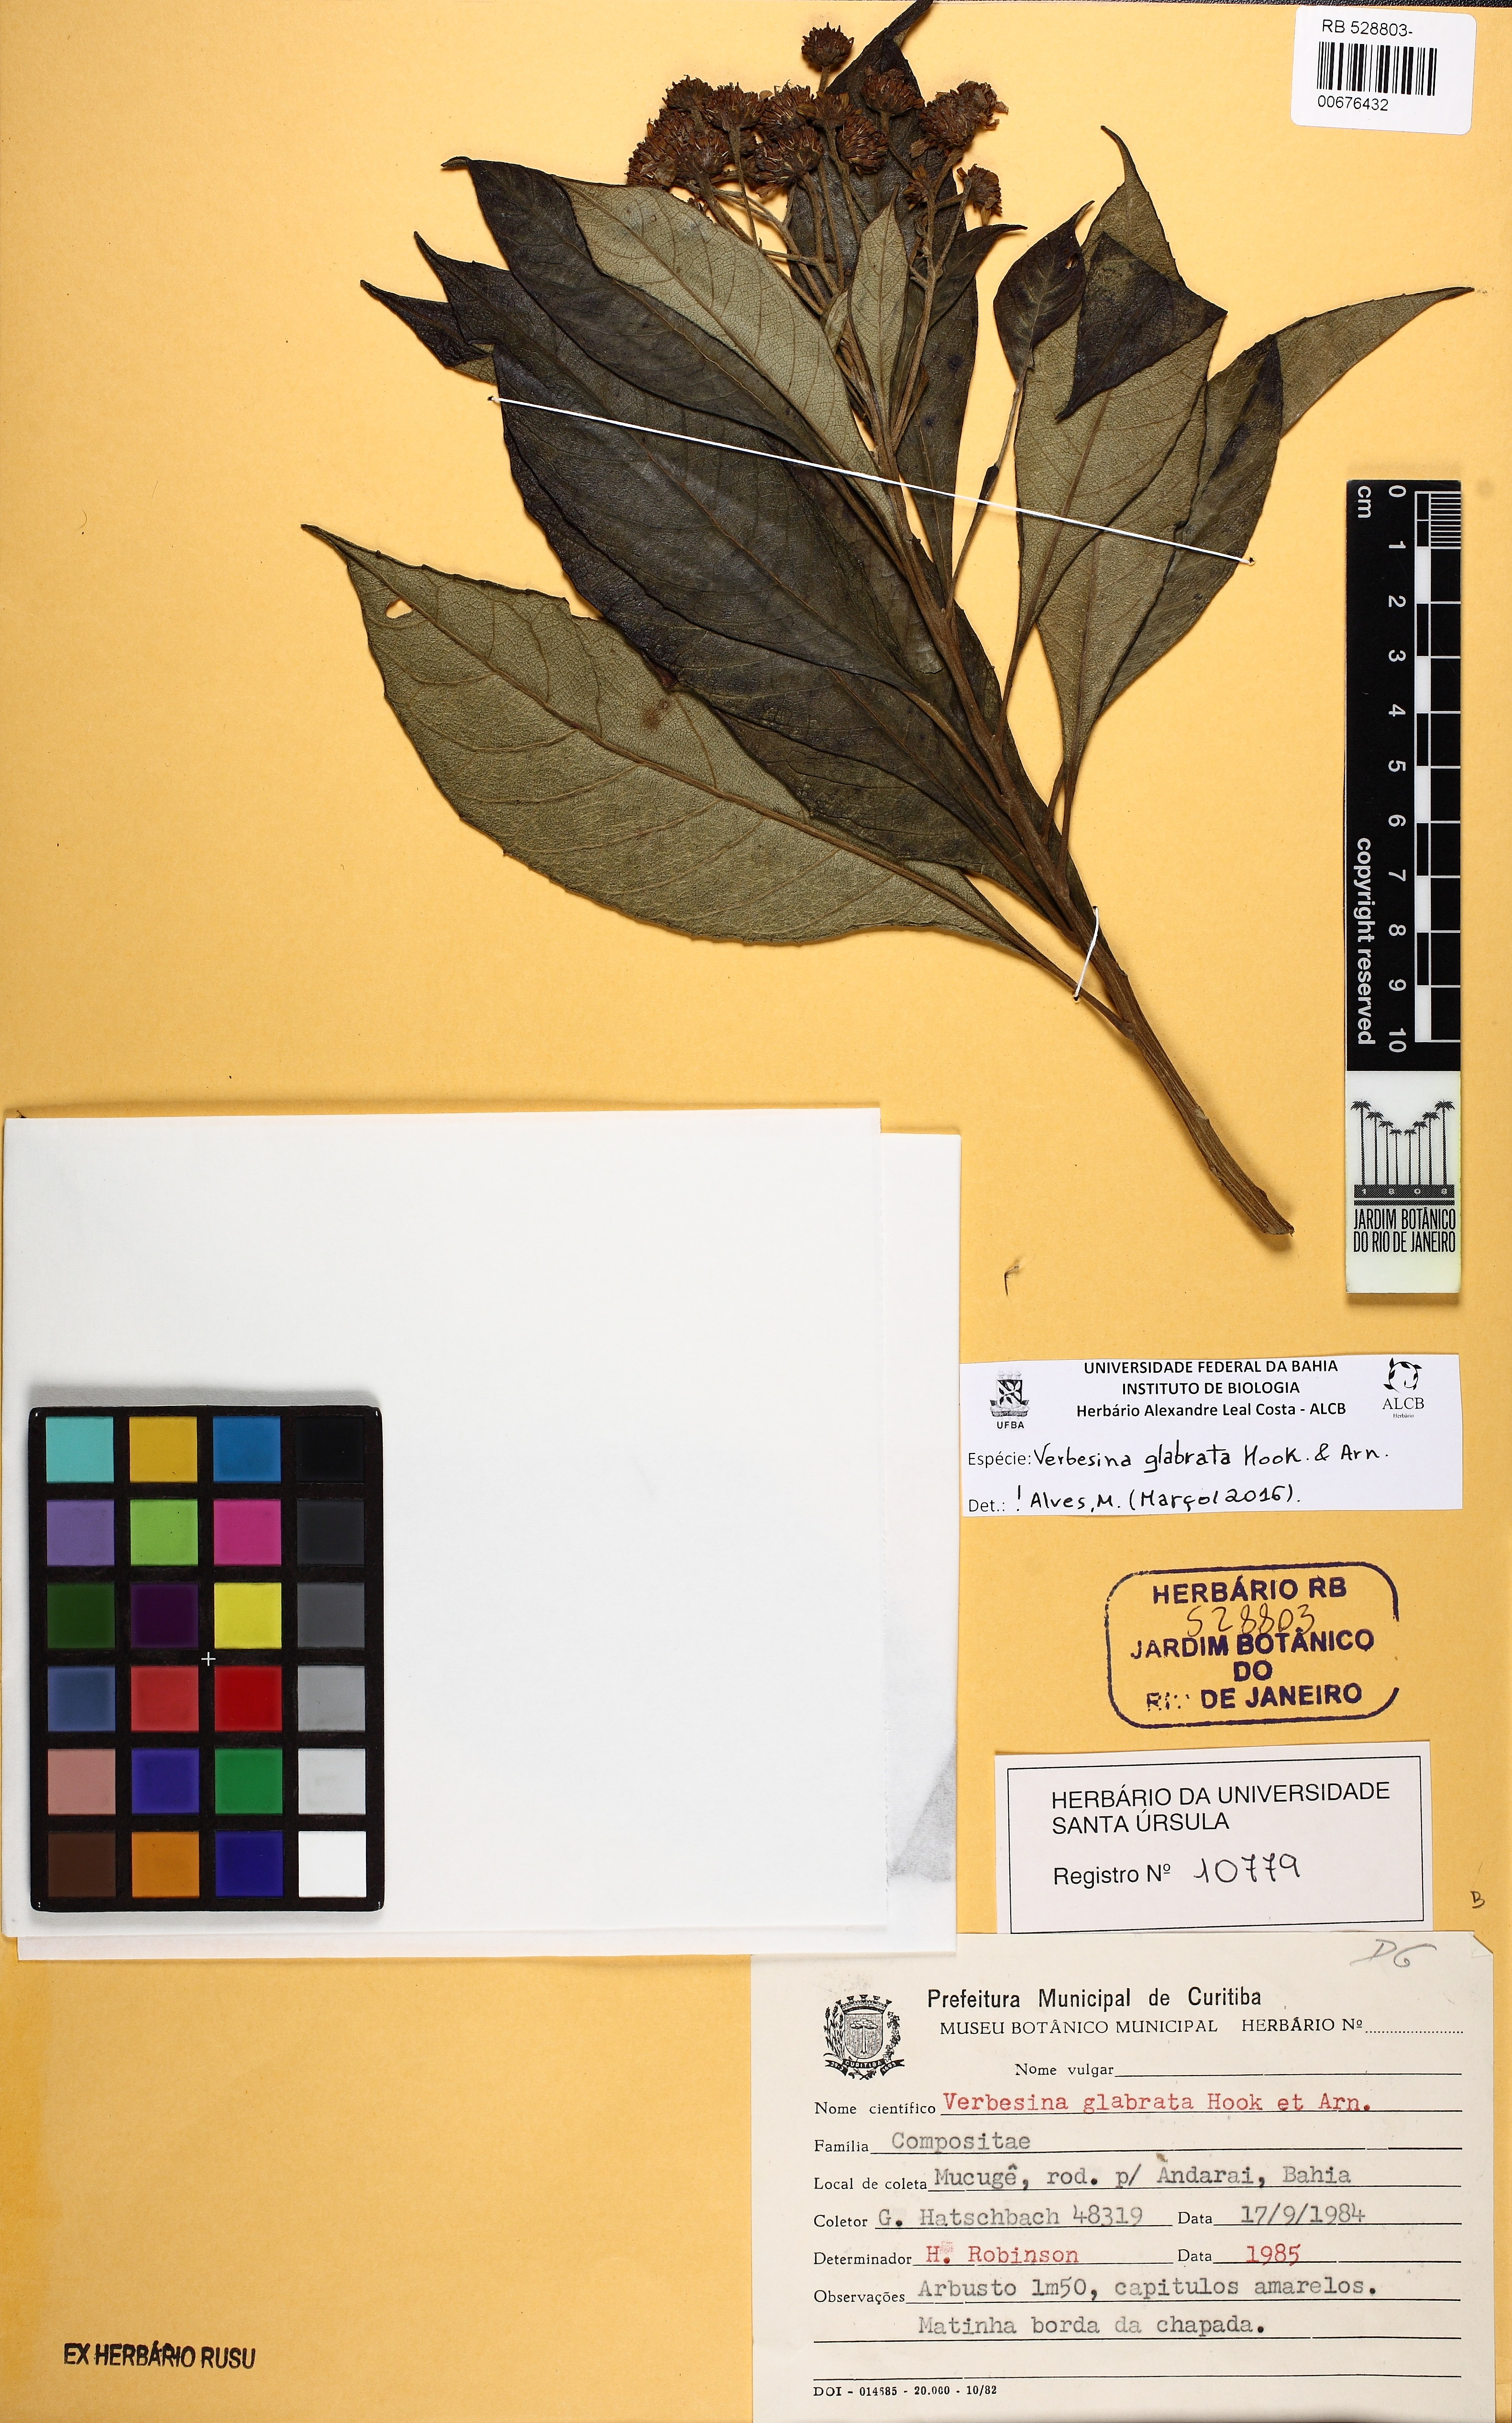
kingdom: Plantae
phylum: Tracheophyta
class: Magnoliopsida
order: Asterales
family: Asteraceae
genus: Verbesina
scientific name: Verbesina glabrata
